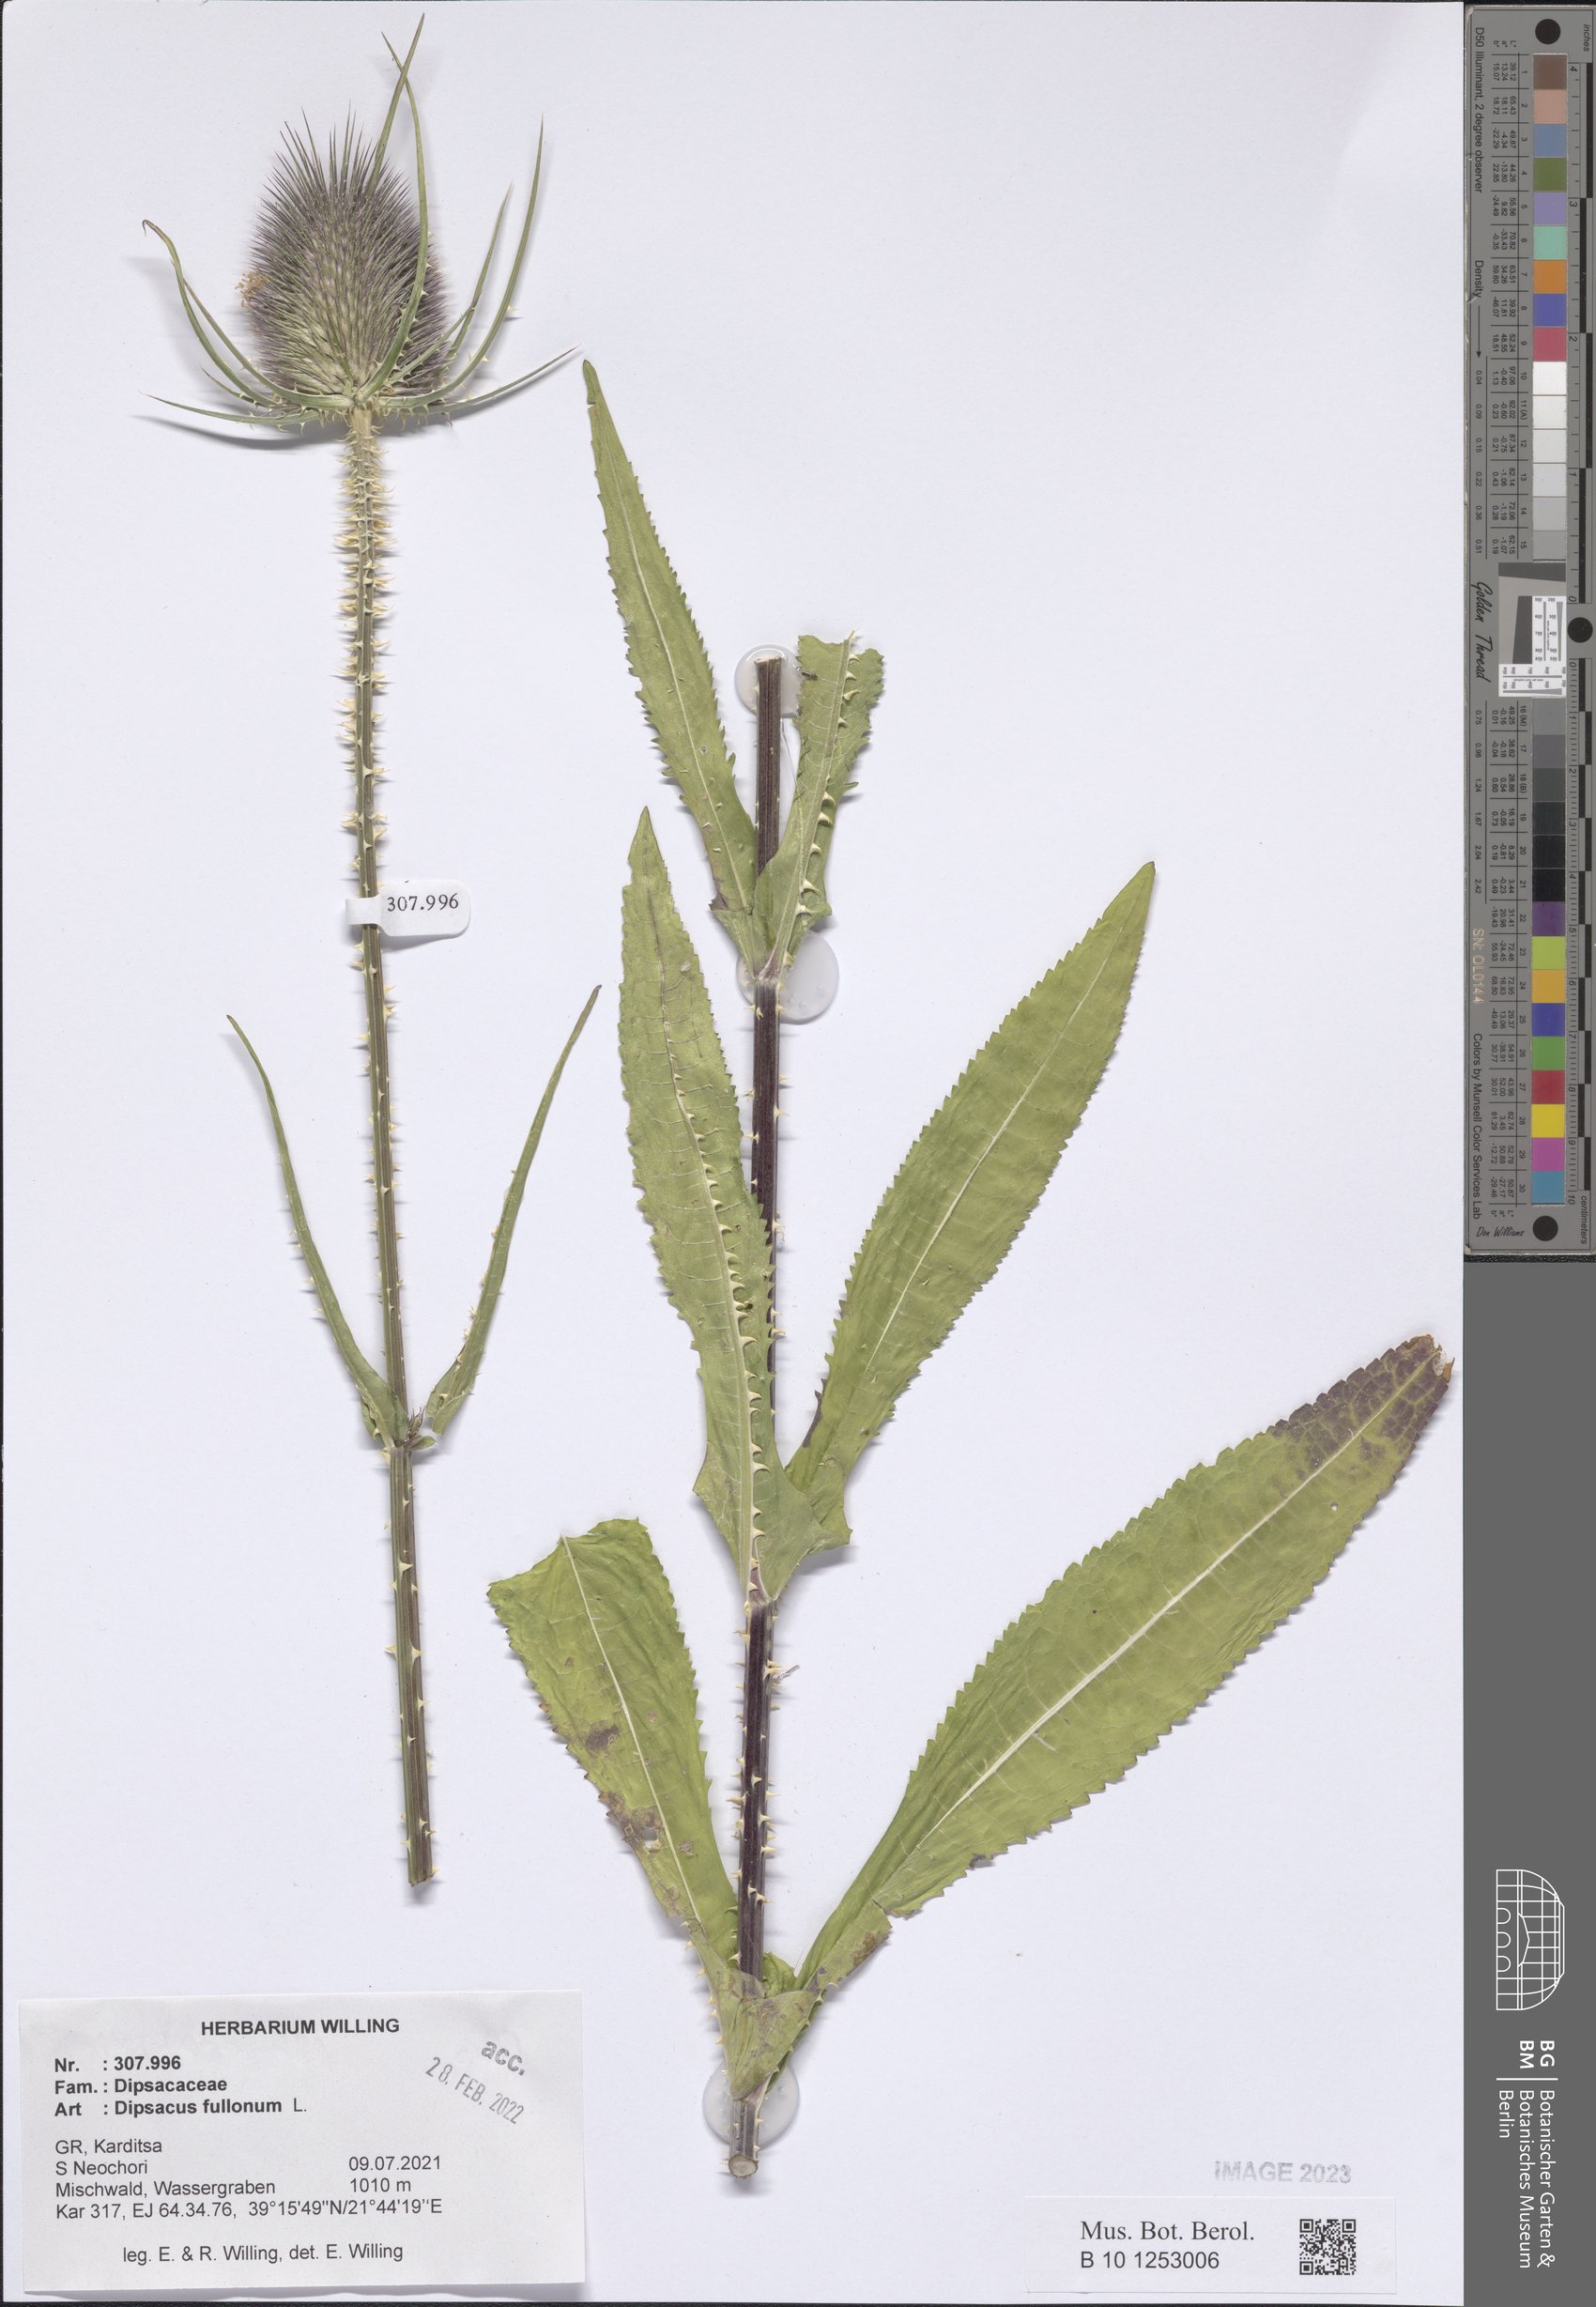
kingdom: Plantae
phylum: Tracheophyta
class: Magnoliopsida
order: Dipsacales
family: Caprifoliaceae
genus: Dipsacus
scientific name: Dipsacus fullonum
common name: Teasel
